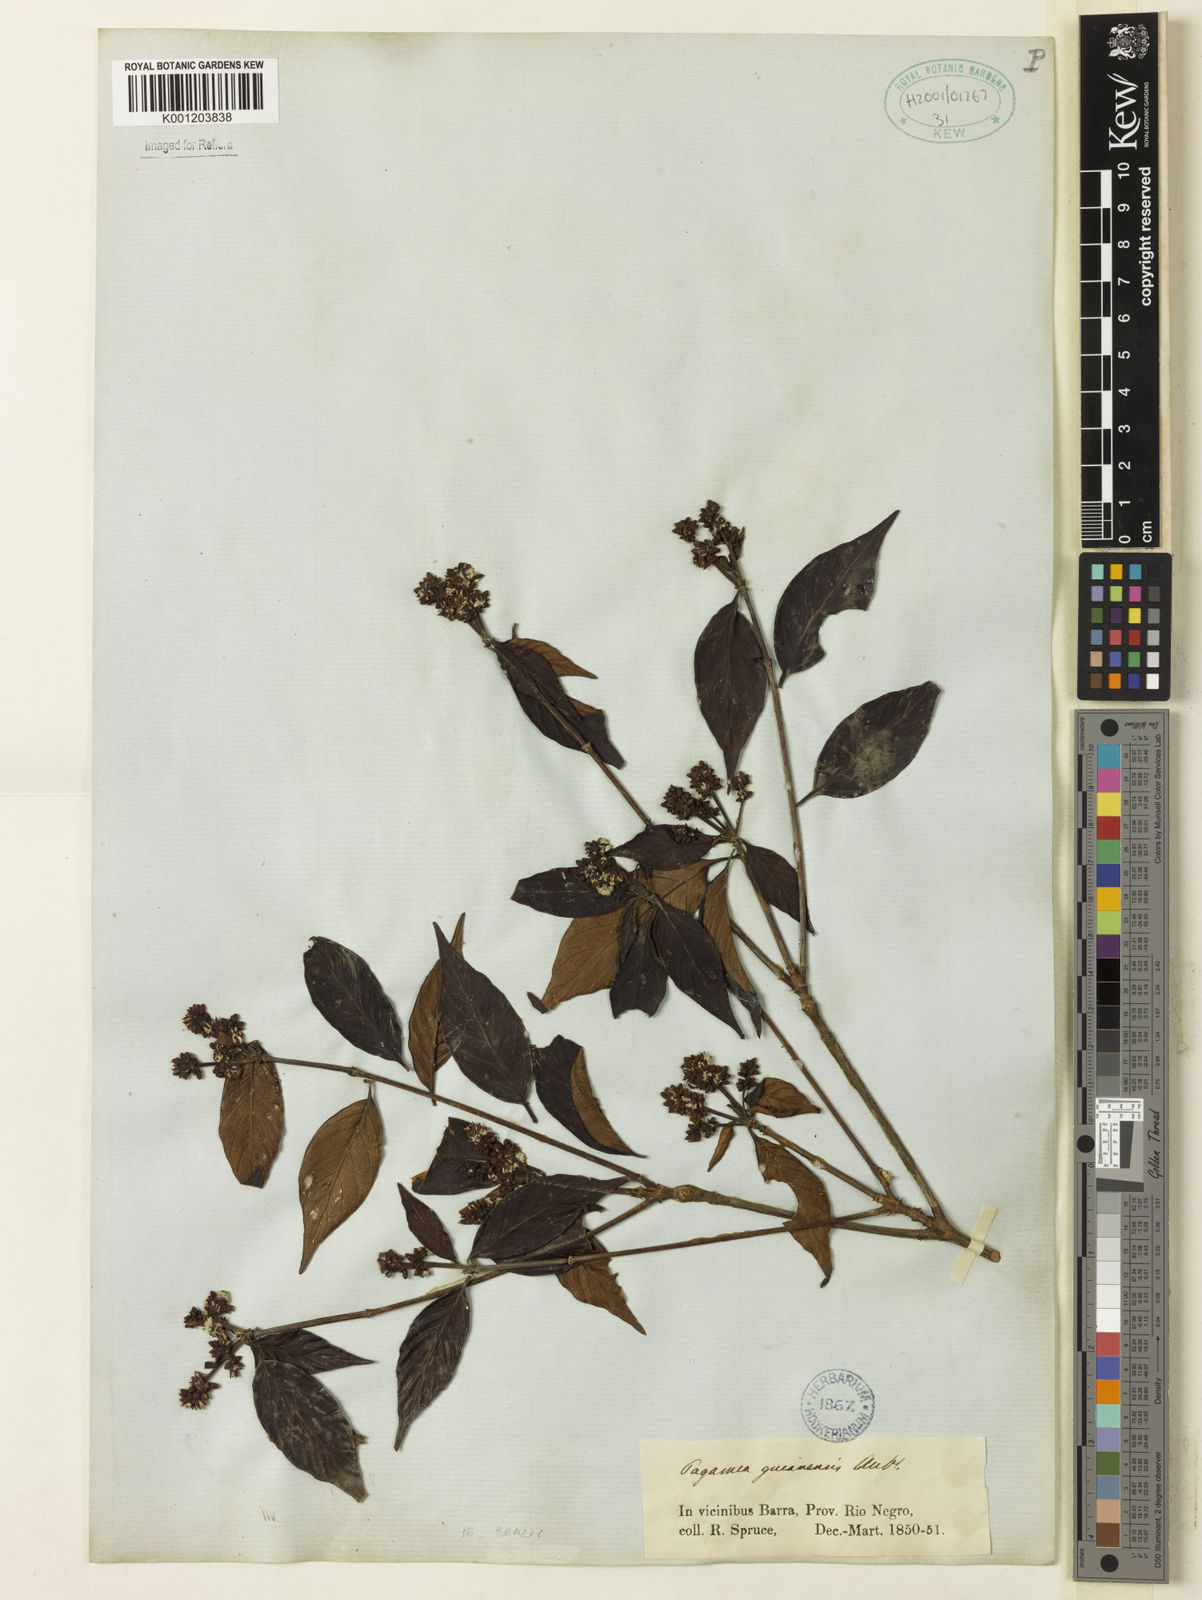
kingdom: Plantae
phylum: Tracheophyta
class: Magnoliopsida
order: Gentianales
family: Rubiaceae
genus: Pagamea
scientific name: Pagamea guianensis
